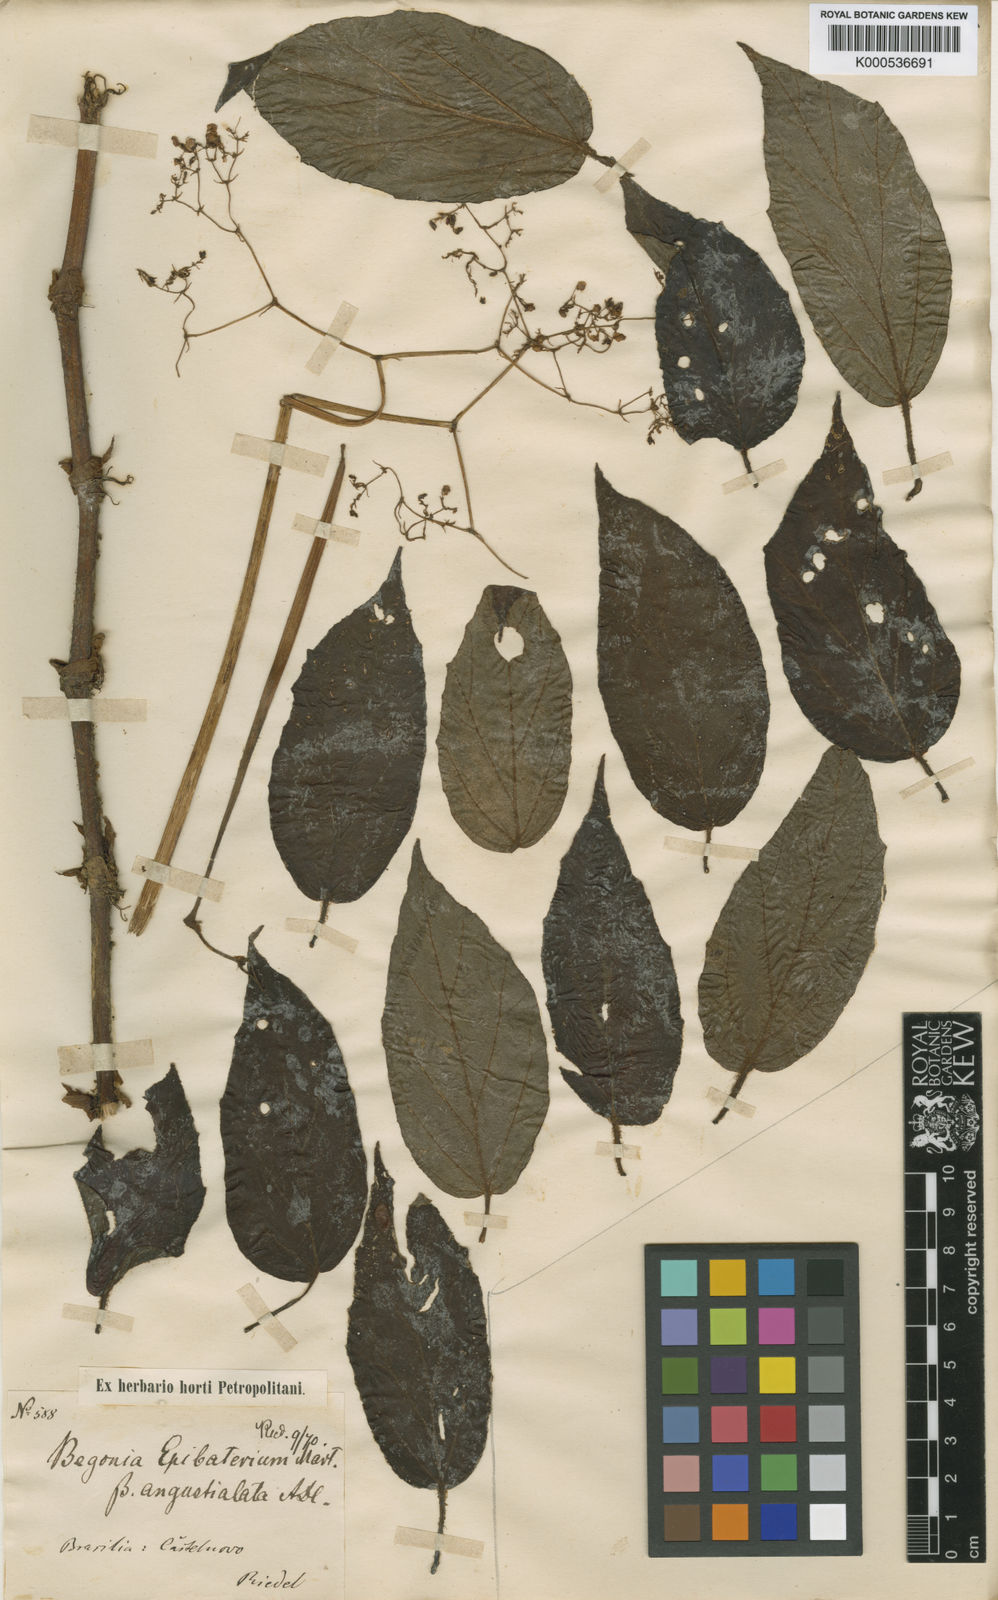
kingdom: Plantae
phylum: Tracheophyta
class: Magnoliopsida
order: Cucurbitales
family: Begoniaceae
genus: Begonia
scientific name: Begonia epibaterium
